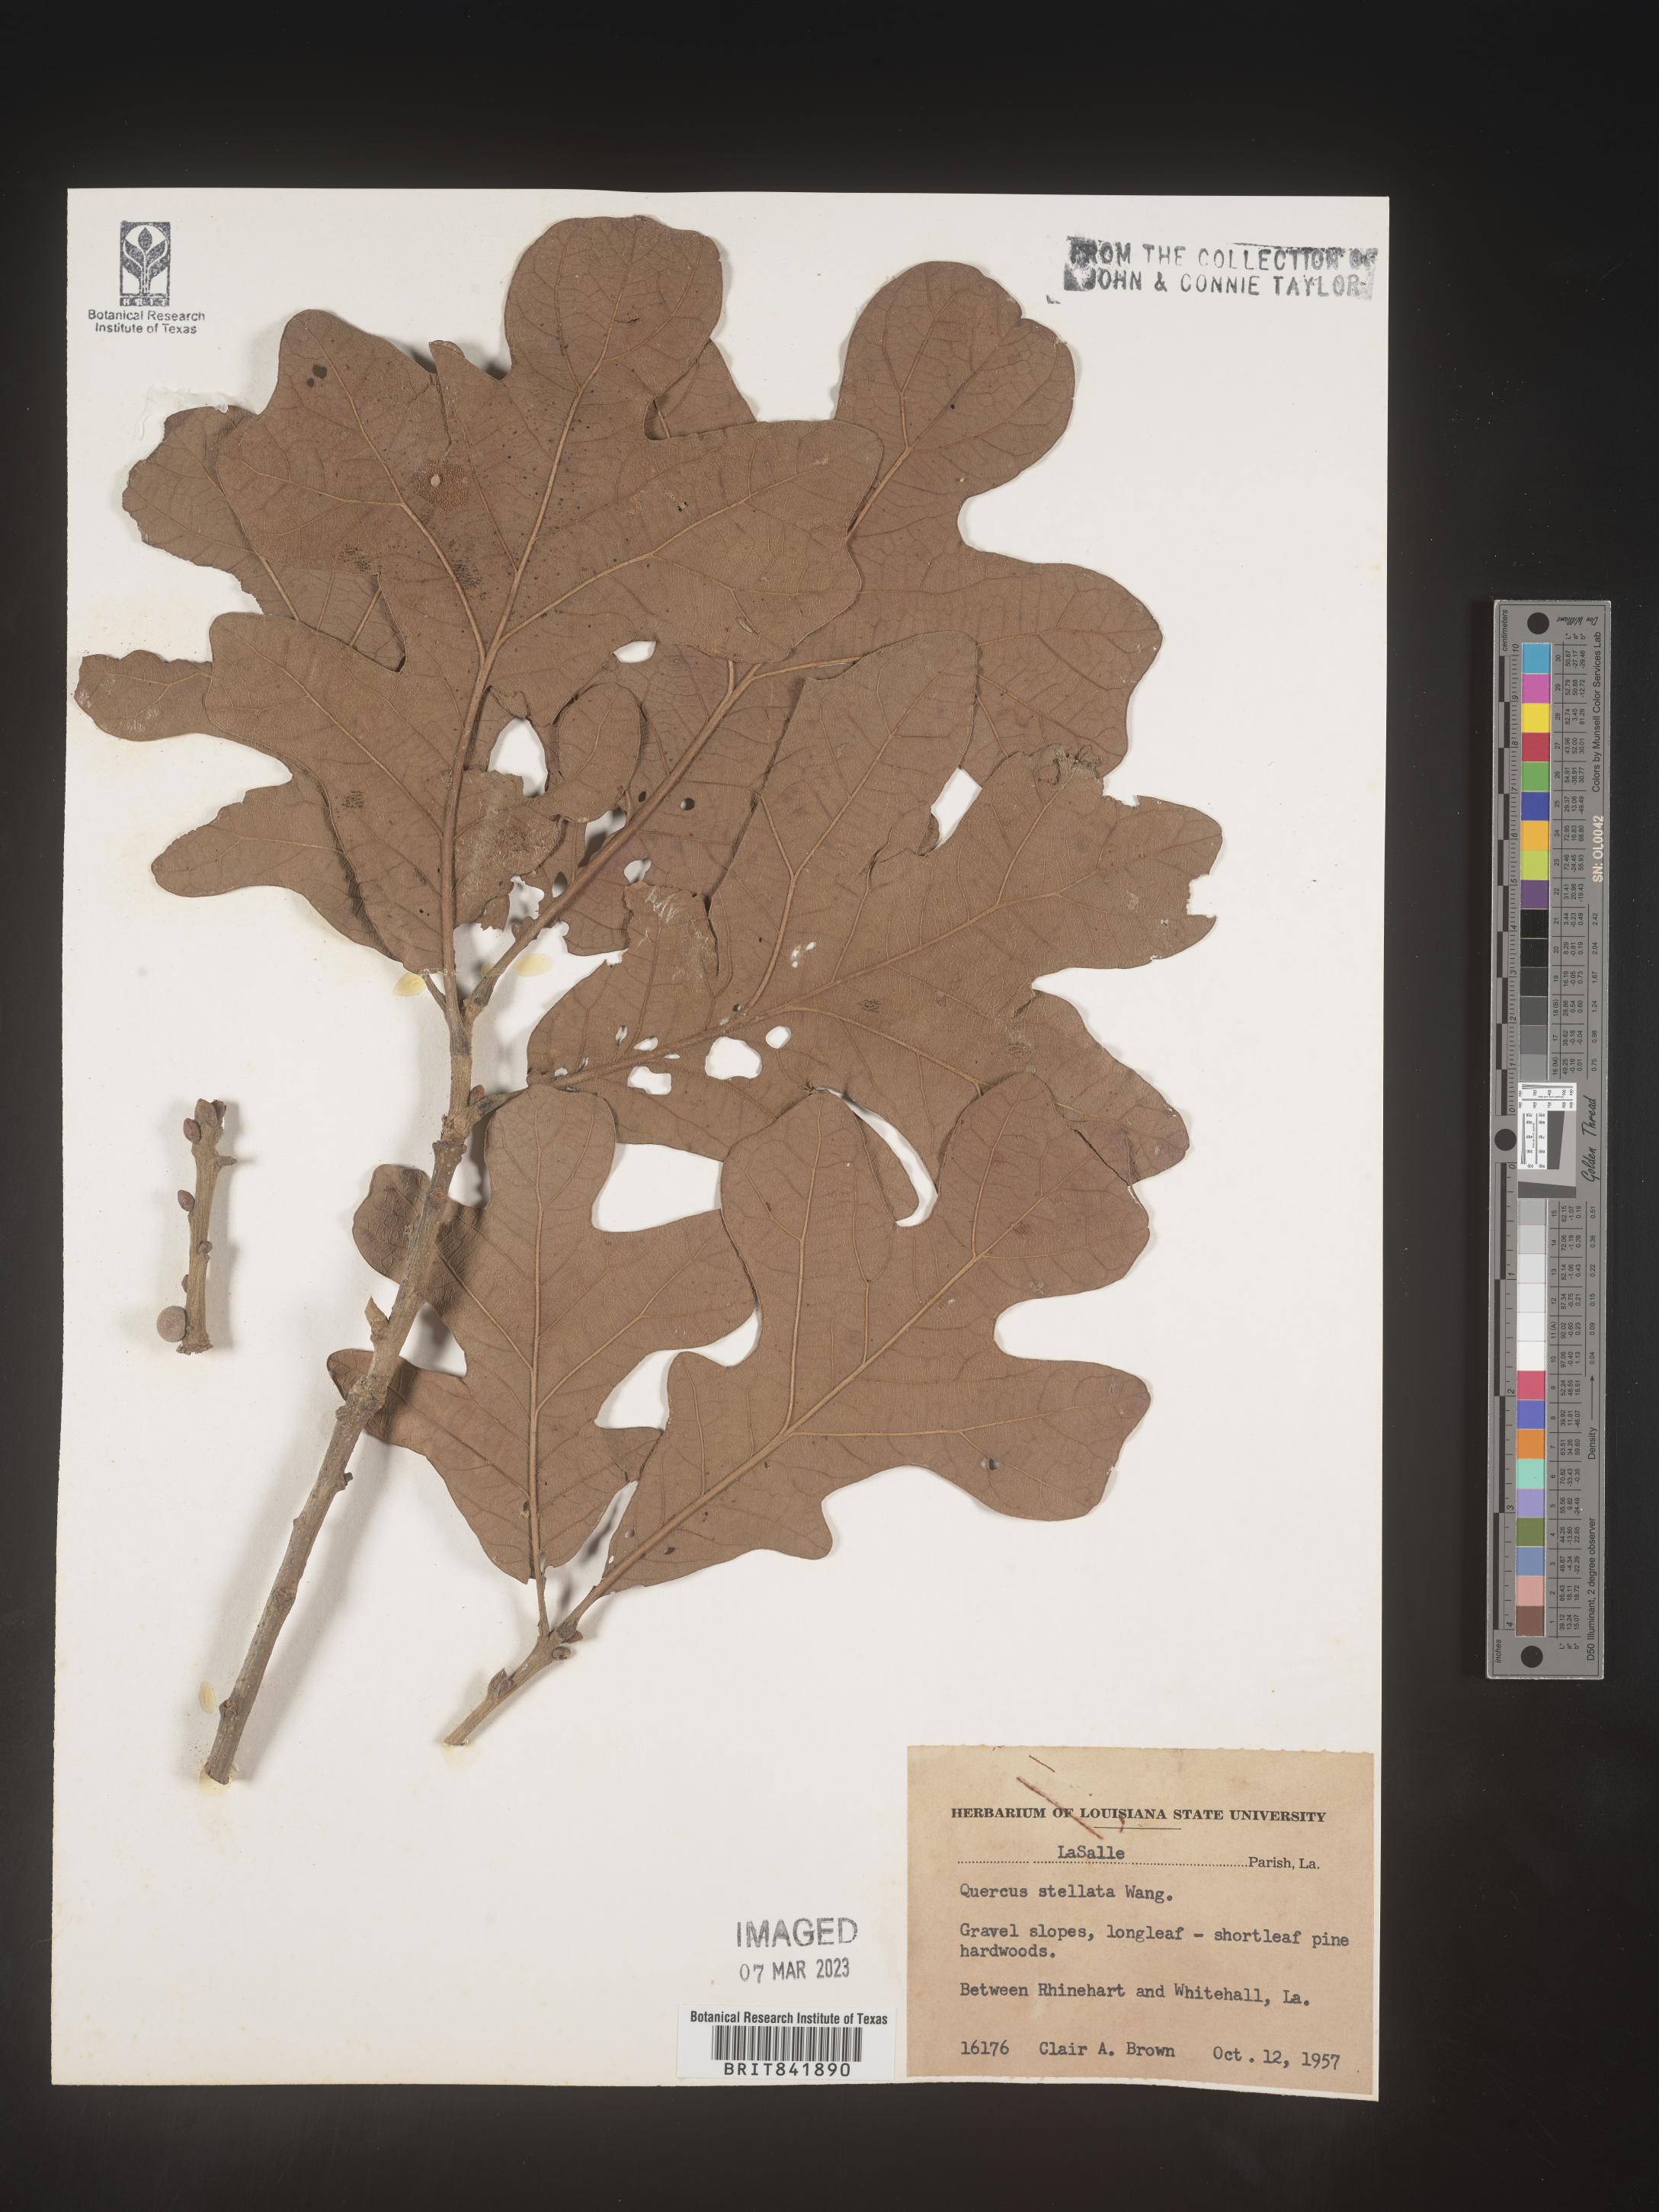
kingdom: Plantae
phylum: Tracheophyta
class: Magnoliopsida
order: Fagales
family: Fagaceae
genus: Quercus
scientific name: Quercus stellata
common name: Post oak
